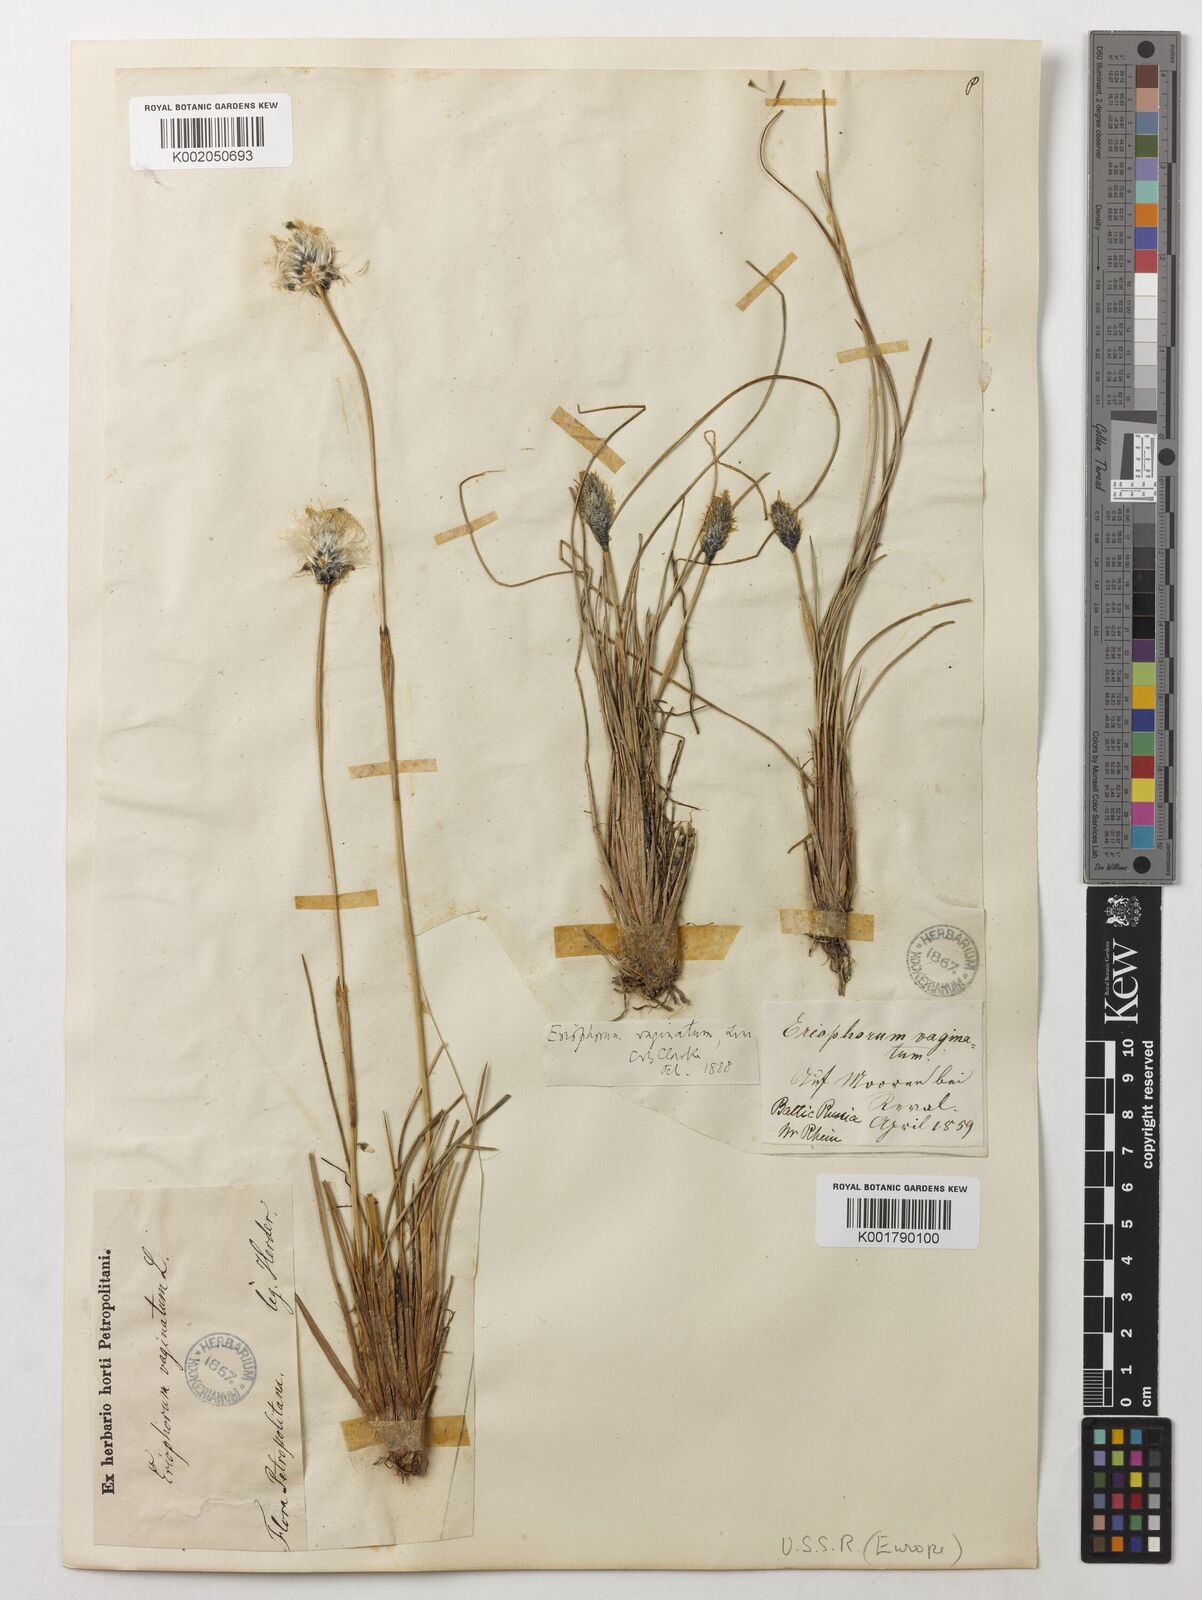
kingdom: Plantae
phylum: Tracheophyta
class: Liliopsida
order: Poales
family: Cyperaceae
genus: Eriophorum
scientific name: Eriophorum vaginatum
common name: Hare's-tail cottongrass
